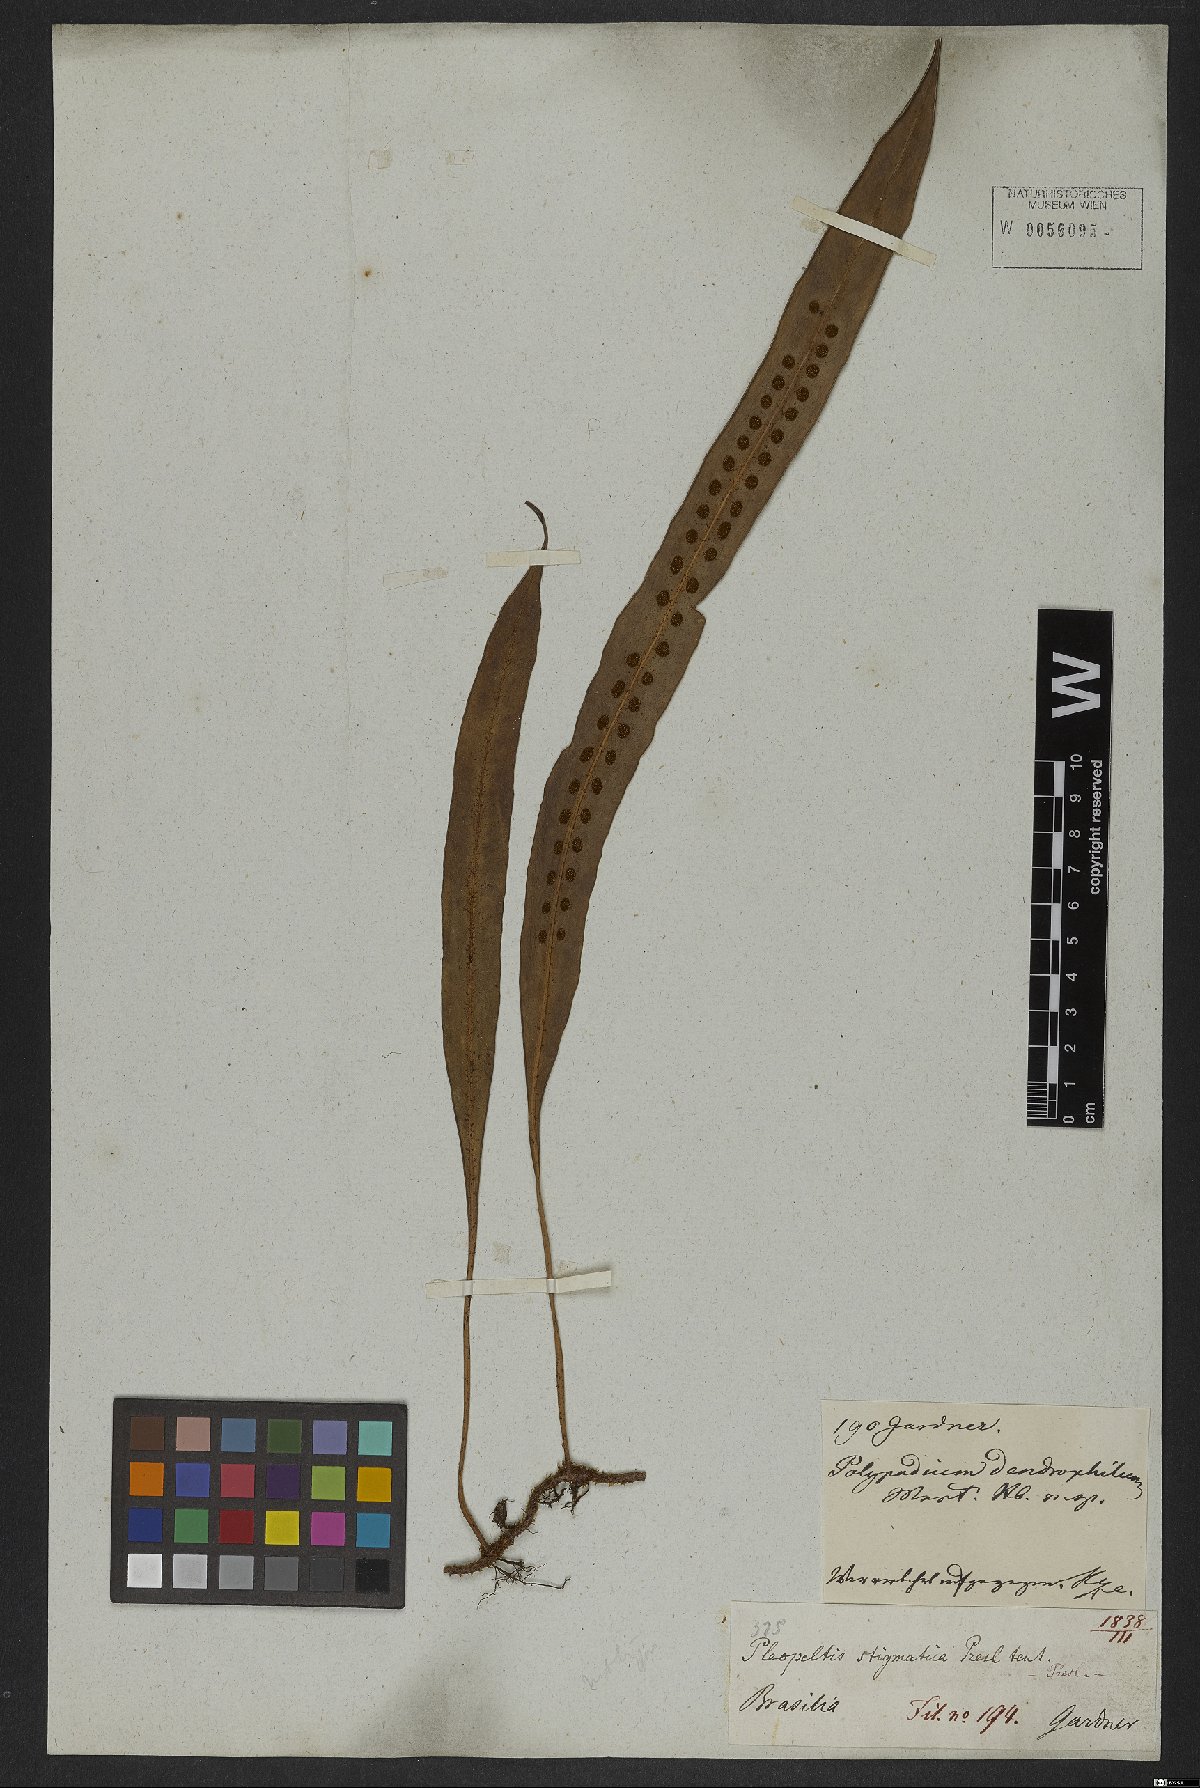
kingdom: Plantae
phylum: Tracheophyta
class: Polypodiopsida
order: Polypodiales
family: Polypodiaceae
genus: Microgramma
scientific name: Microgramma lycopodioides
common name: Bastard catclaw
